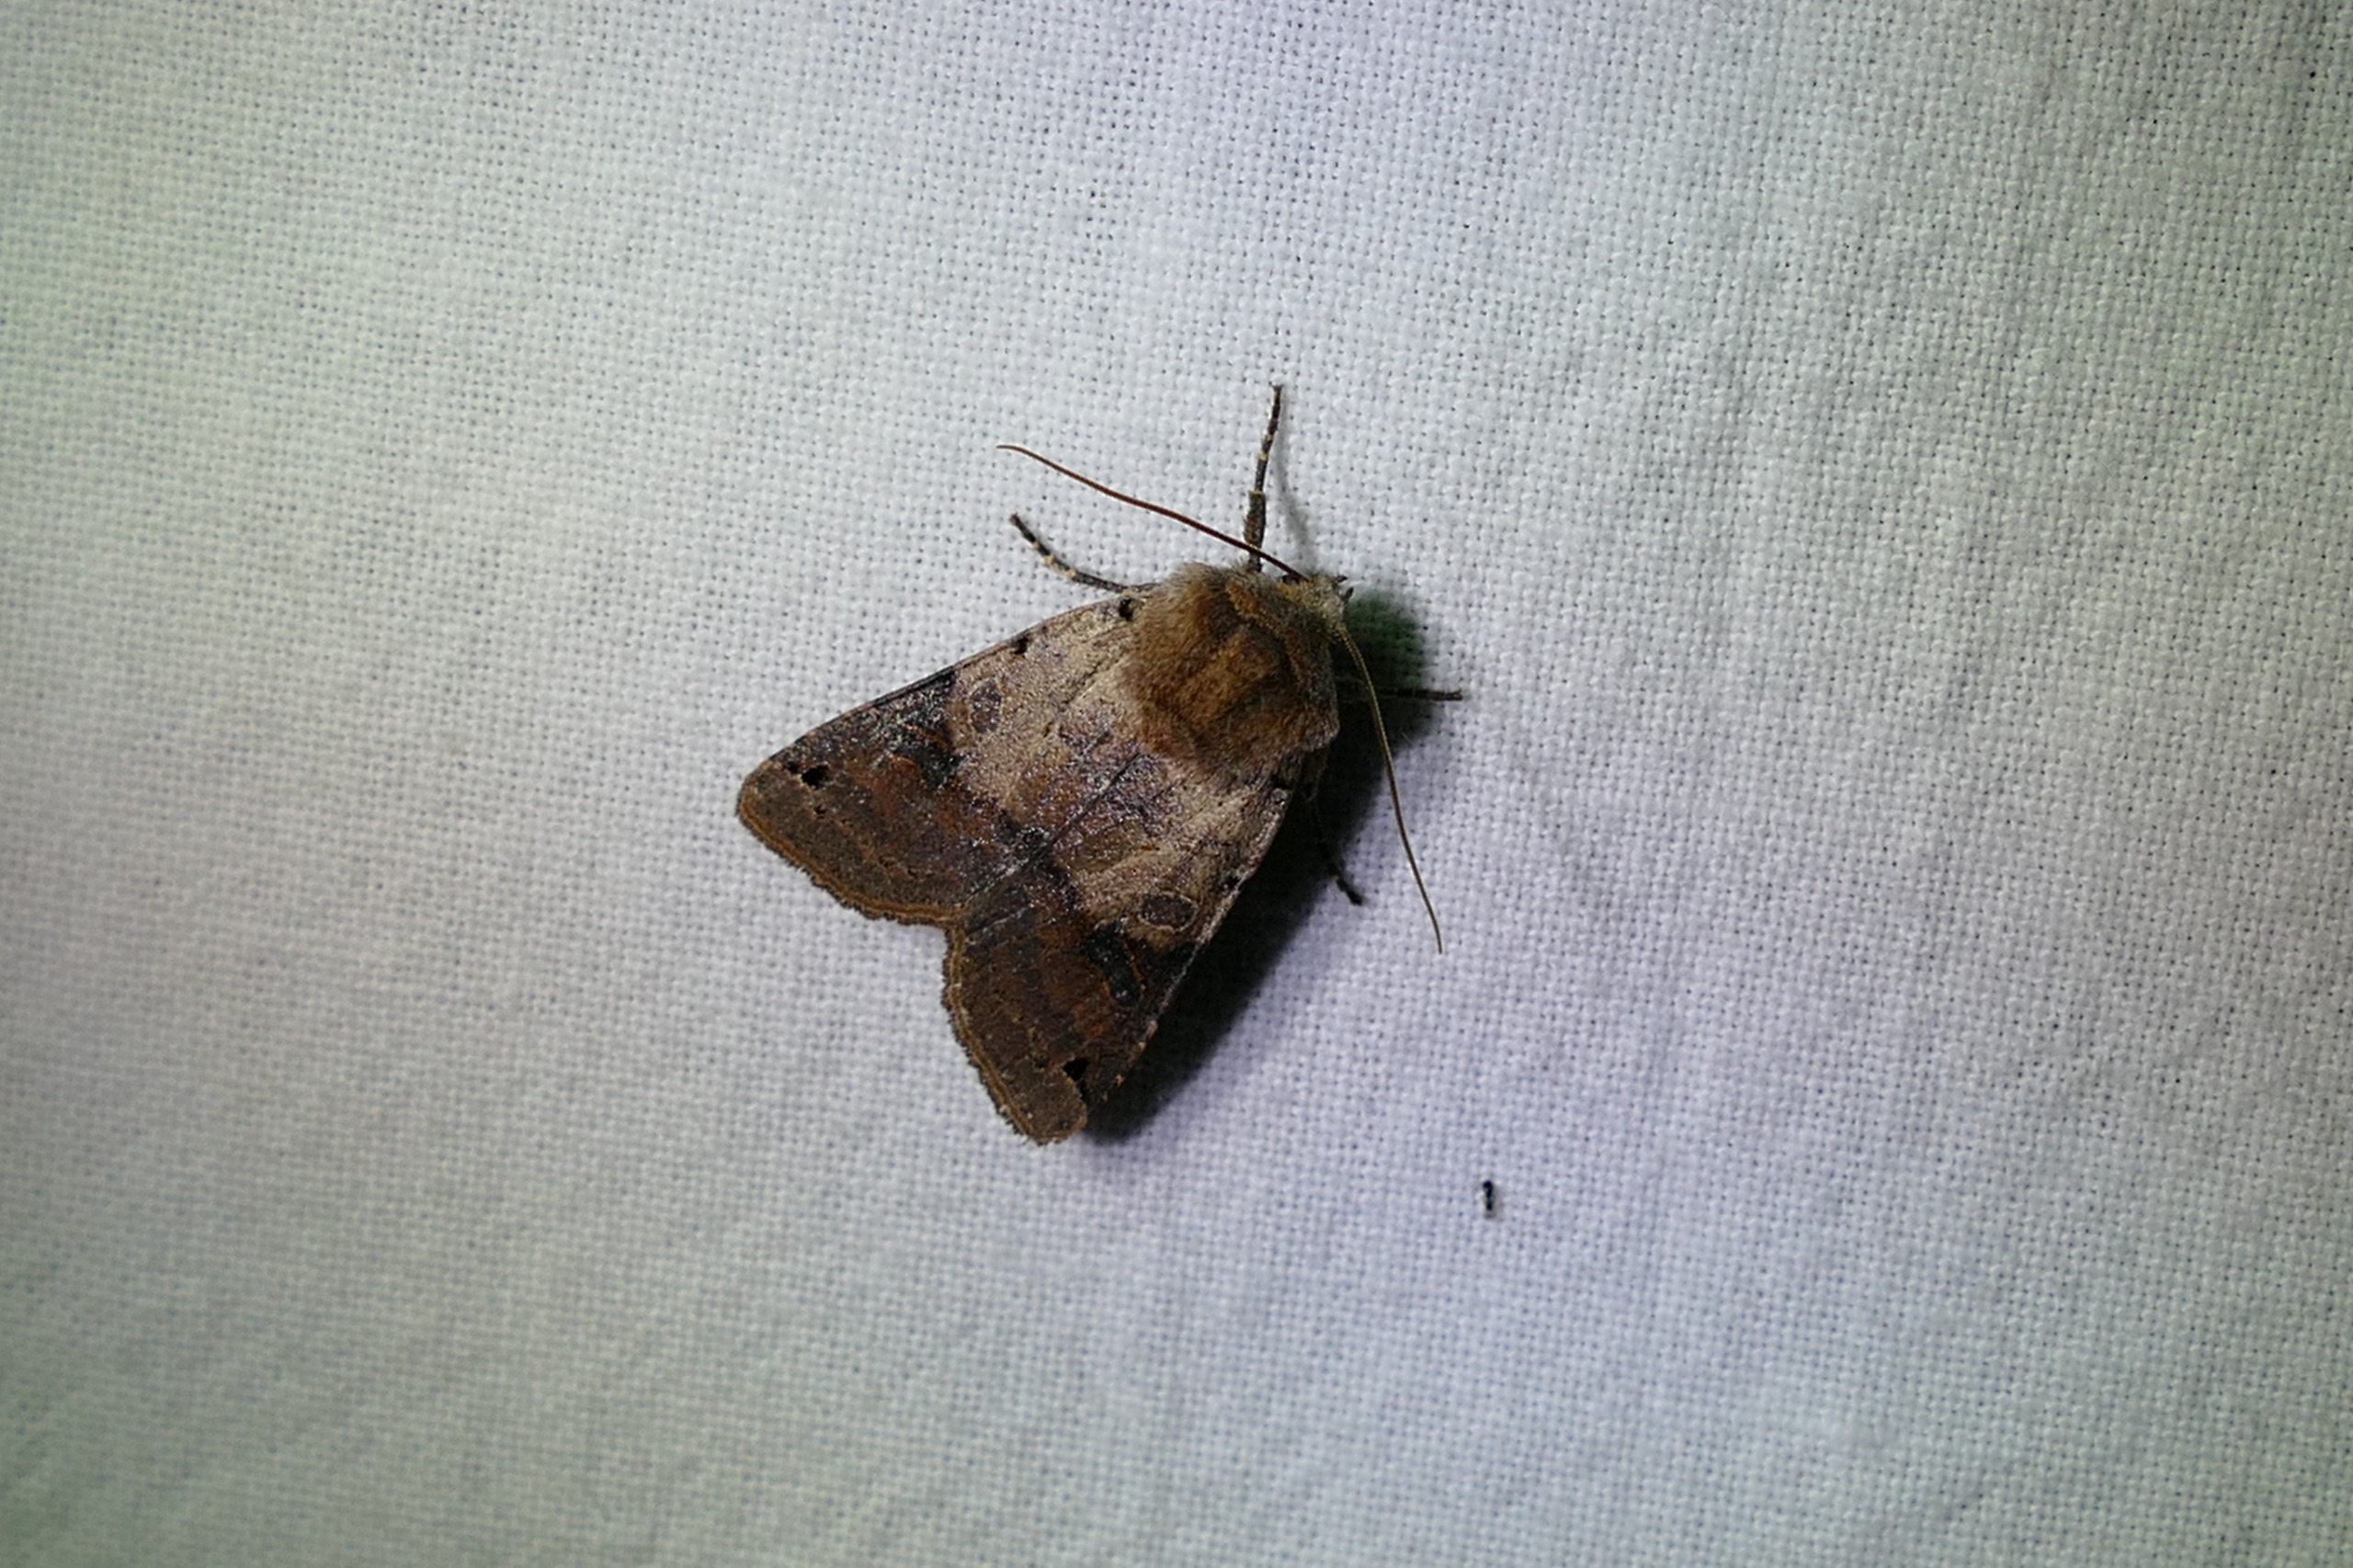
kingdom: Animalia
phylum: Arthropoda
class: Insecta
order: Lepidoptera
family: Noctuidae
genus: Agrochola
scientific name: Agrochola litura
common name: Kantplettet jordfarveugle
